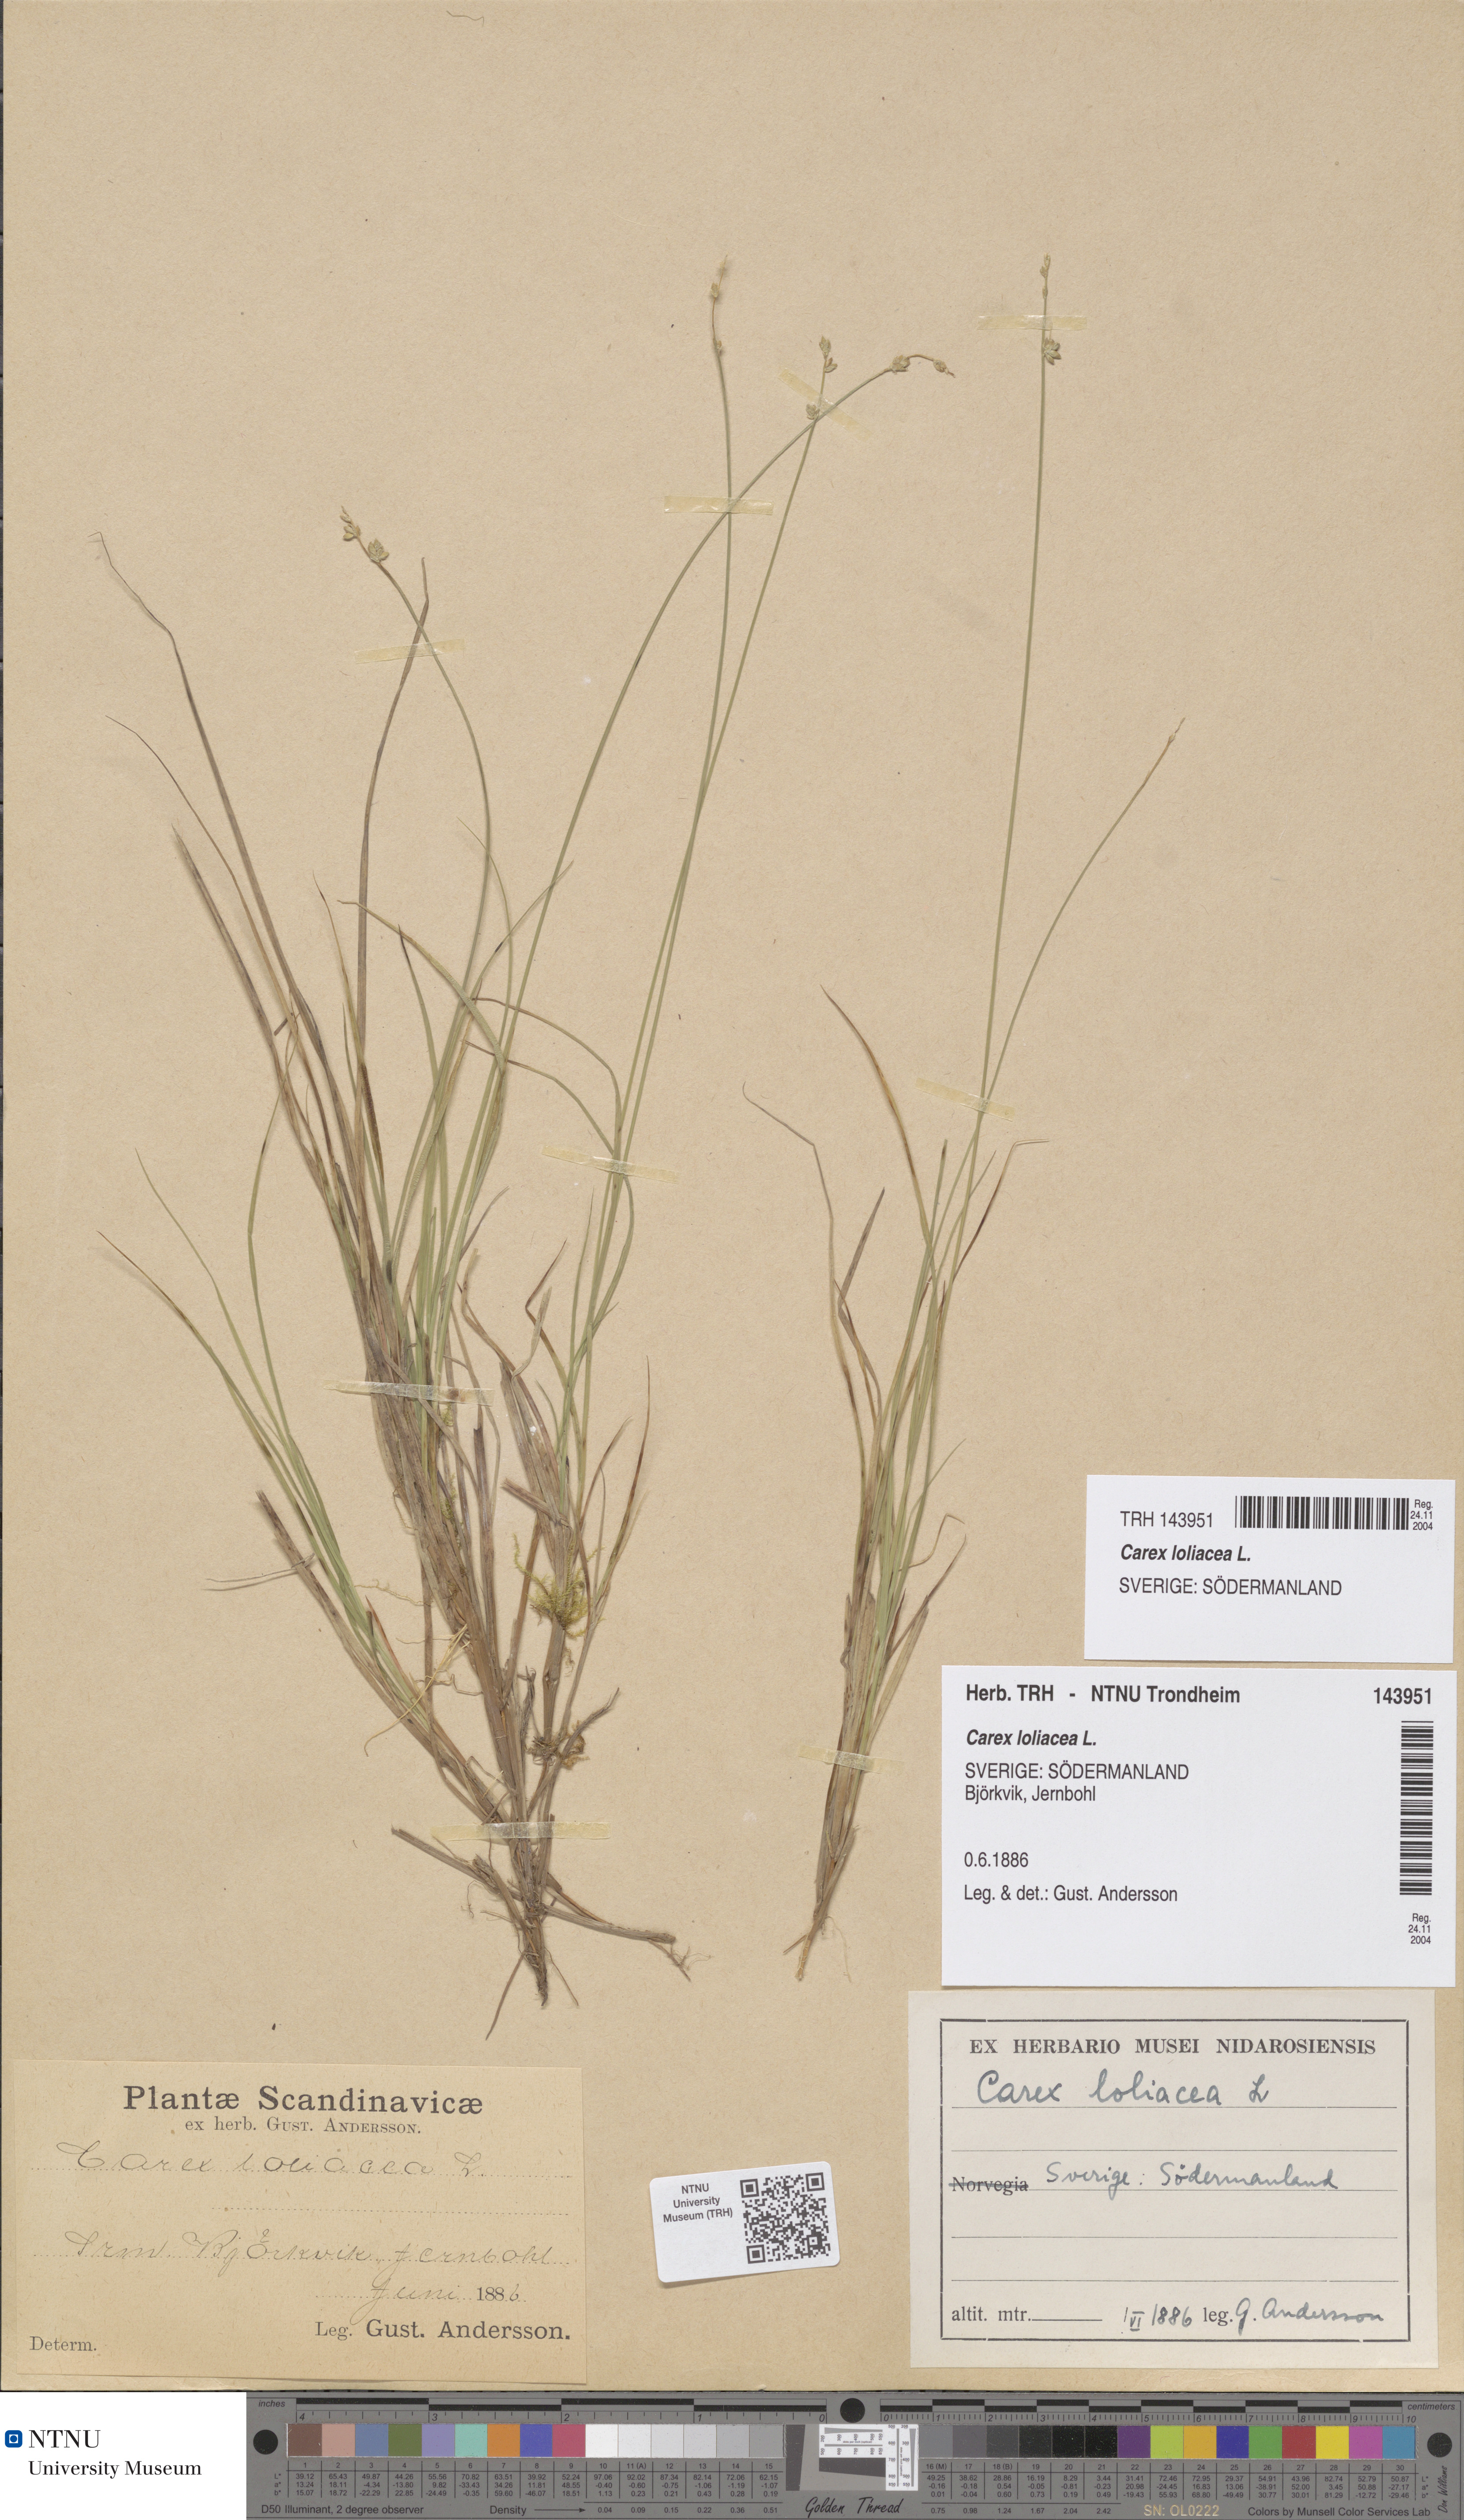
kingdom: Plantae
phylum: Tracheophyta
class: Liliopsida
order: Poales
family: Cyperaceae
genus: Carex
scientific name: Carex loliacea
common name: Ryegrass sedge
